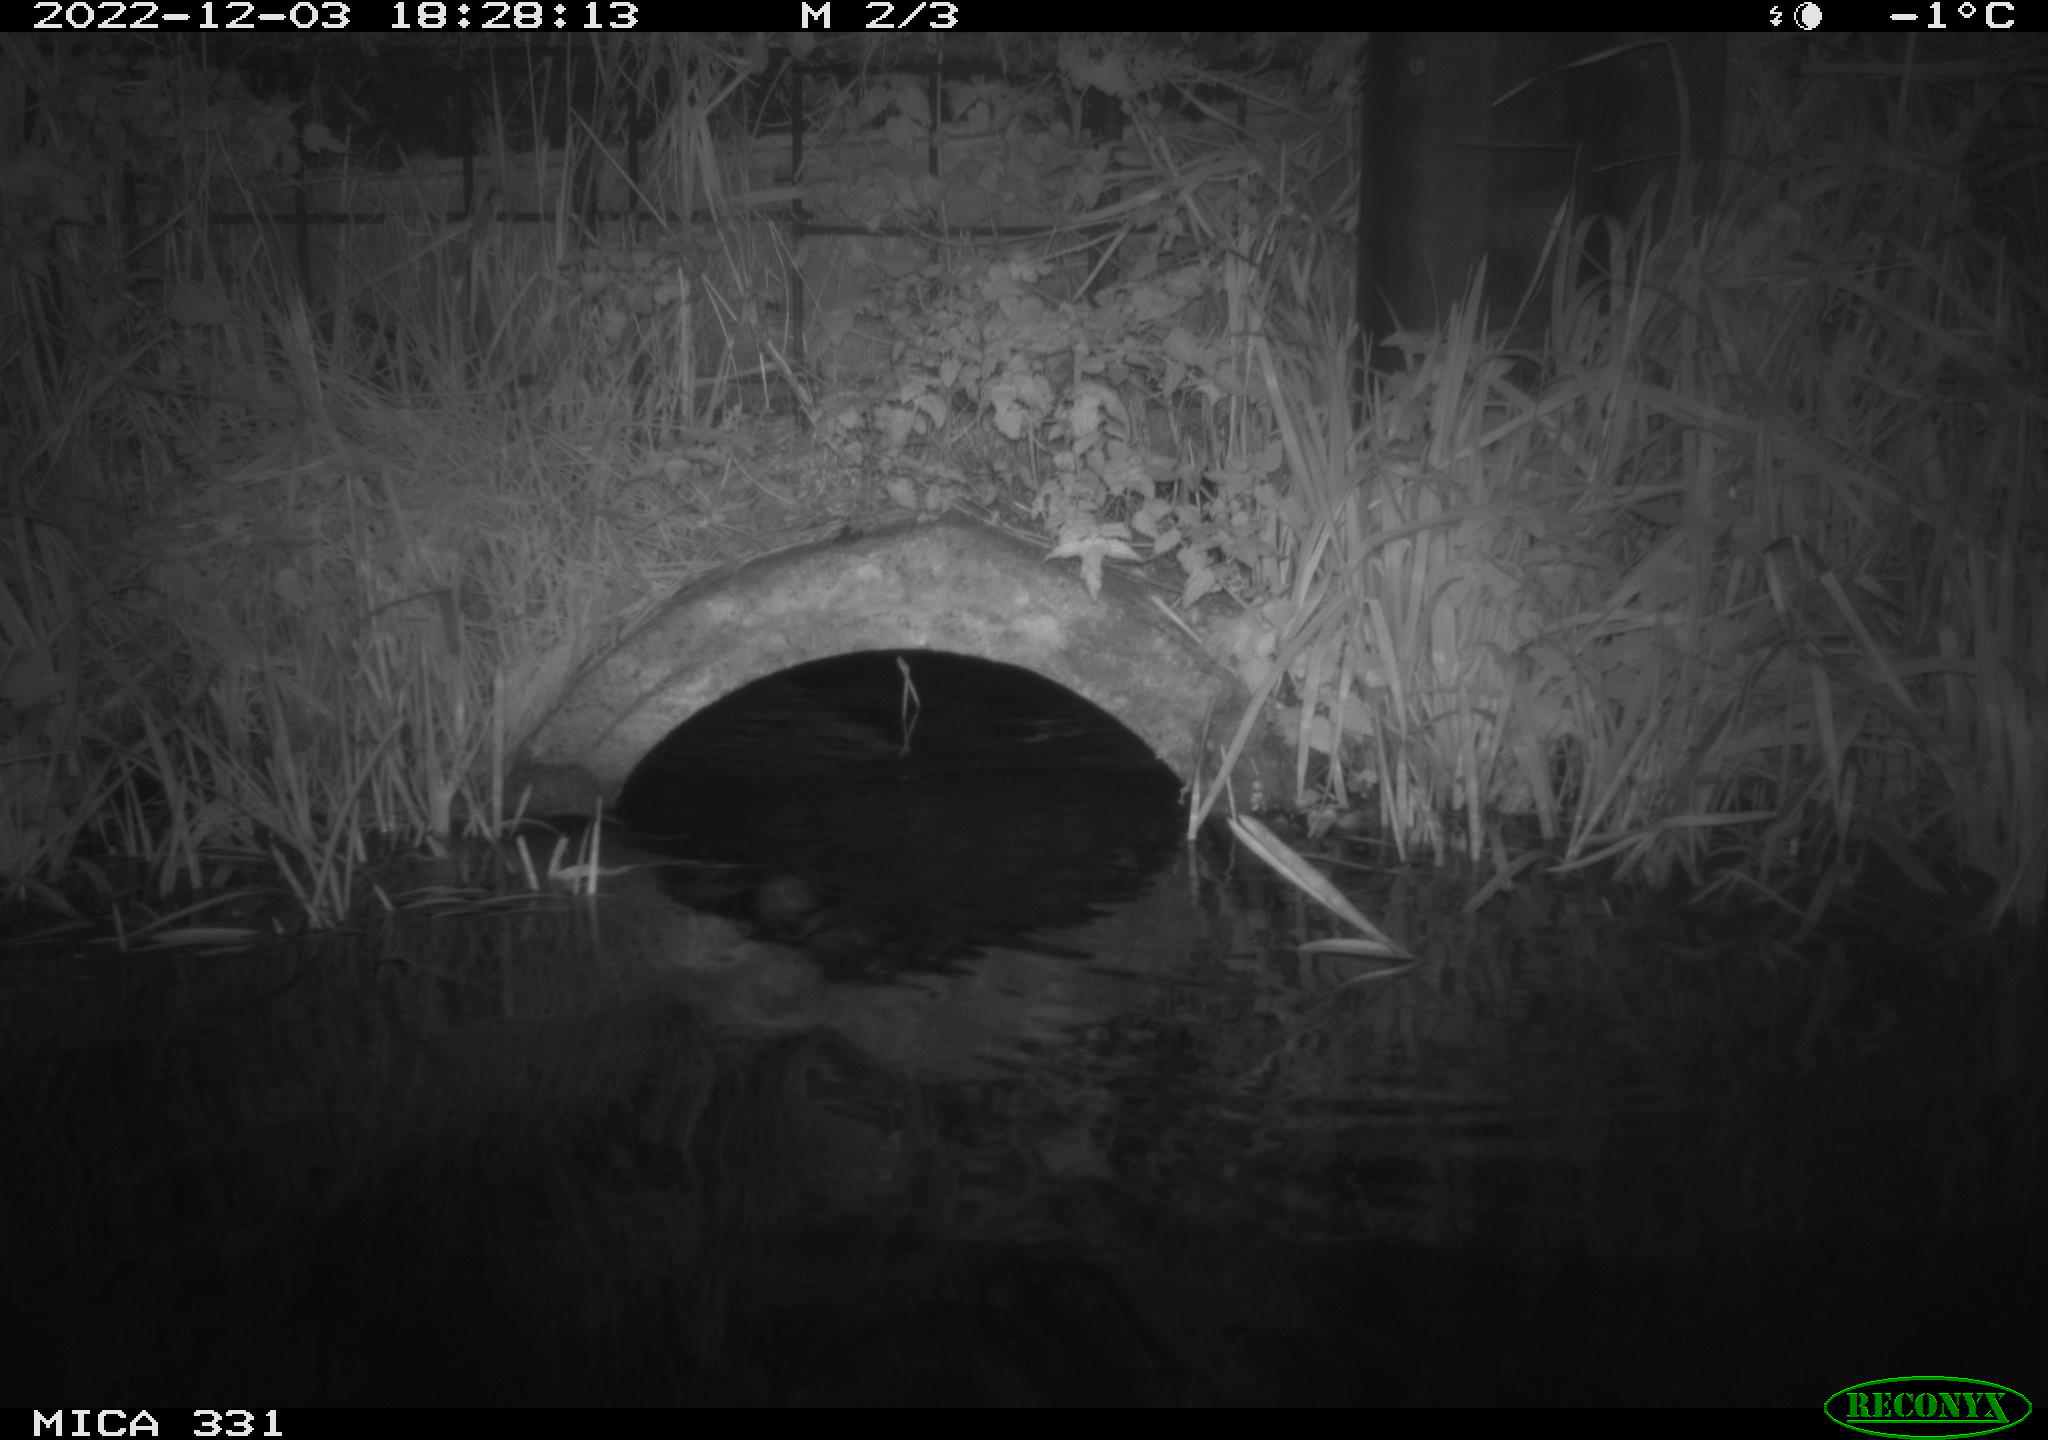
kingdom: Animalia
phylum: Chordata
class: Mammalia
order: Rodentia
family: Muridae
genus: Rattus
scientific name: Rattus norvegicus
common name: Brown rat
